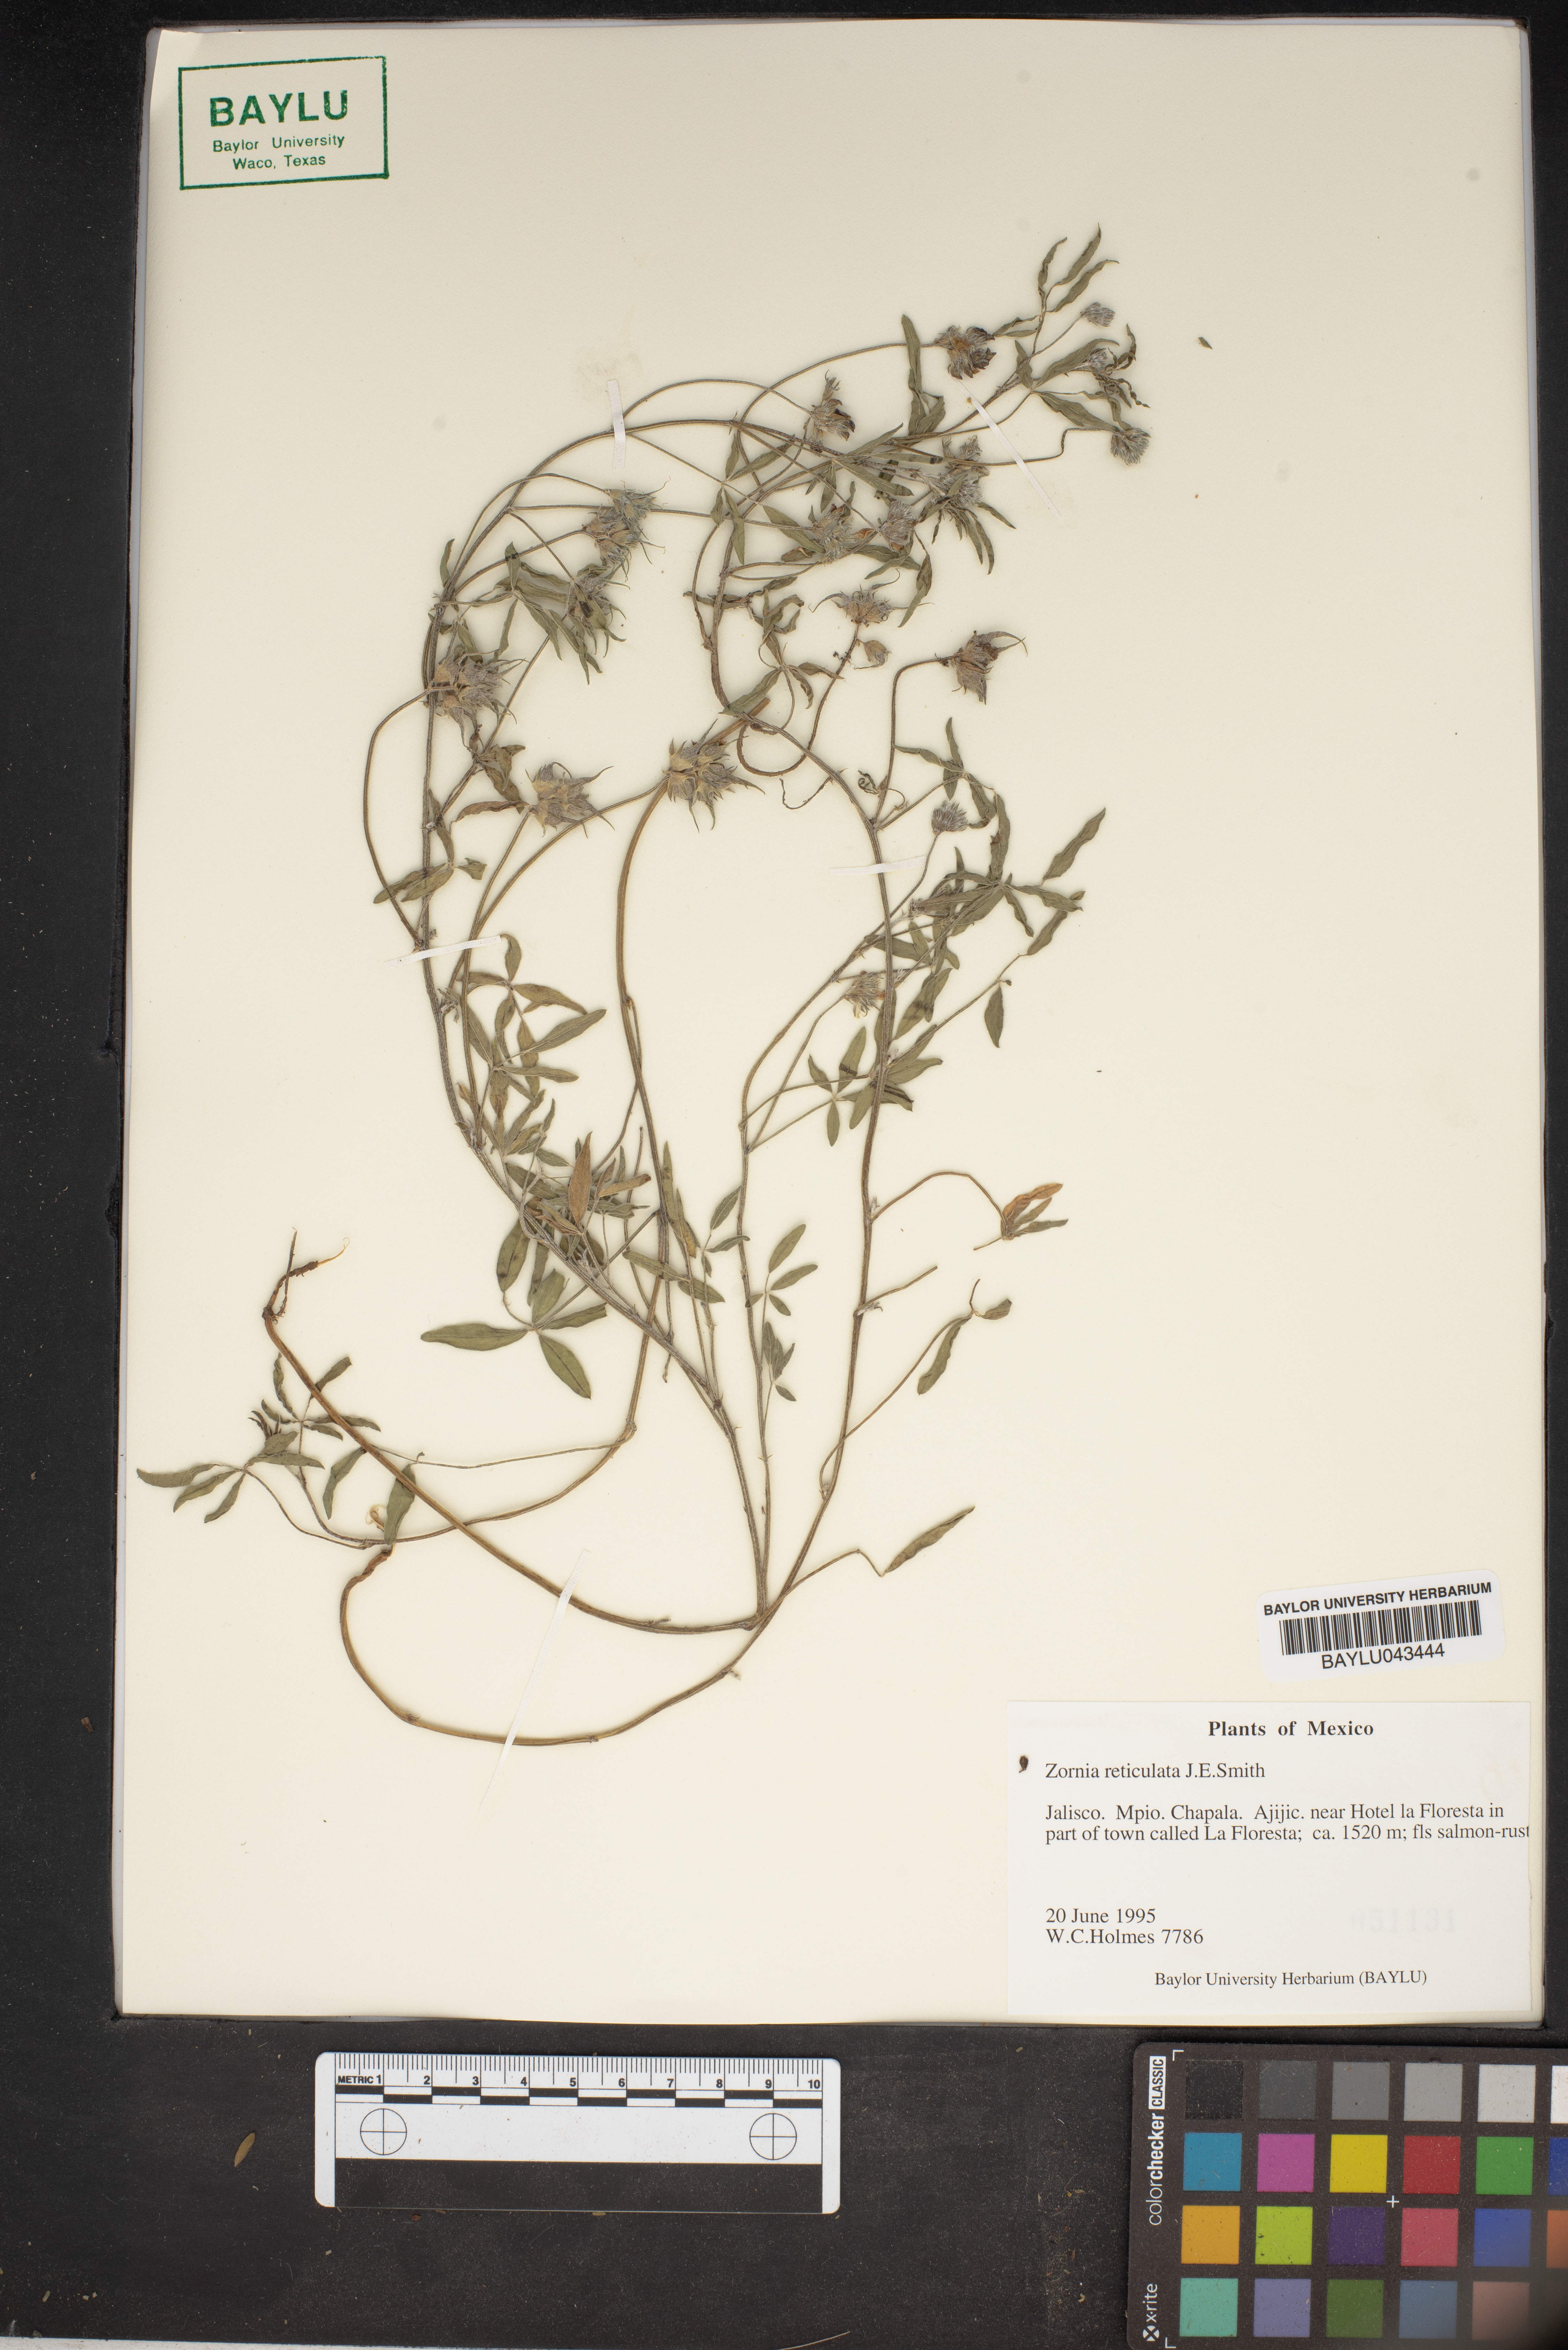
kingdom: Plantae
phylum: Tracheophyta
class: Magnoliopsida
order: Fabales
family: Fabaceae
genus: Zornia
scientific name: Zornia reticulata
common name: Reticulate viperina
